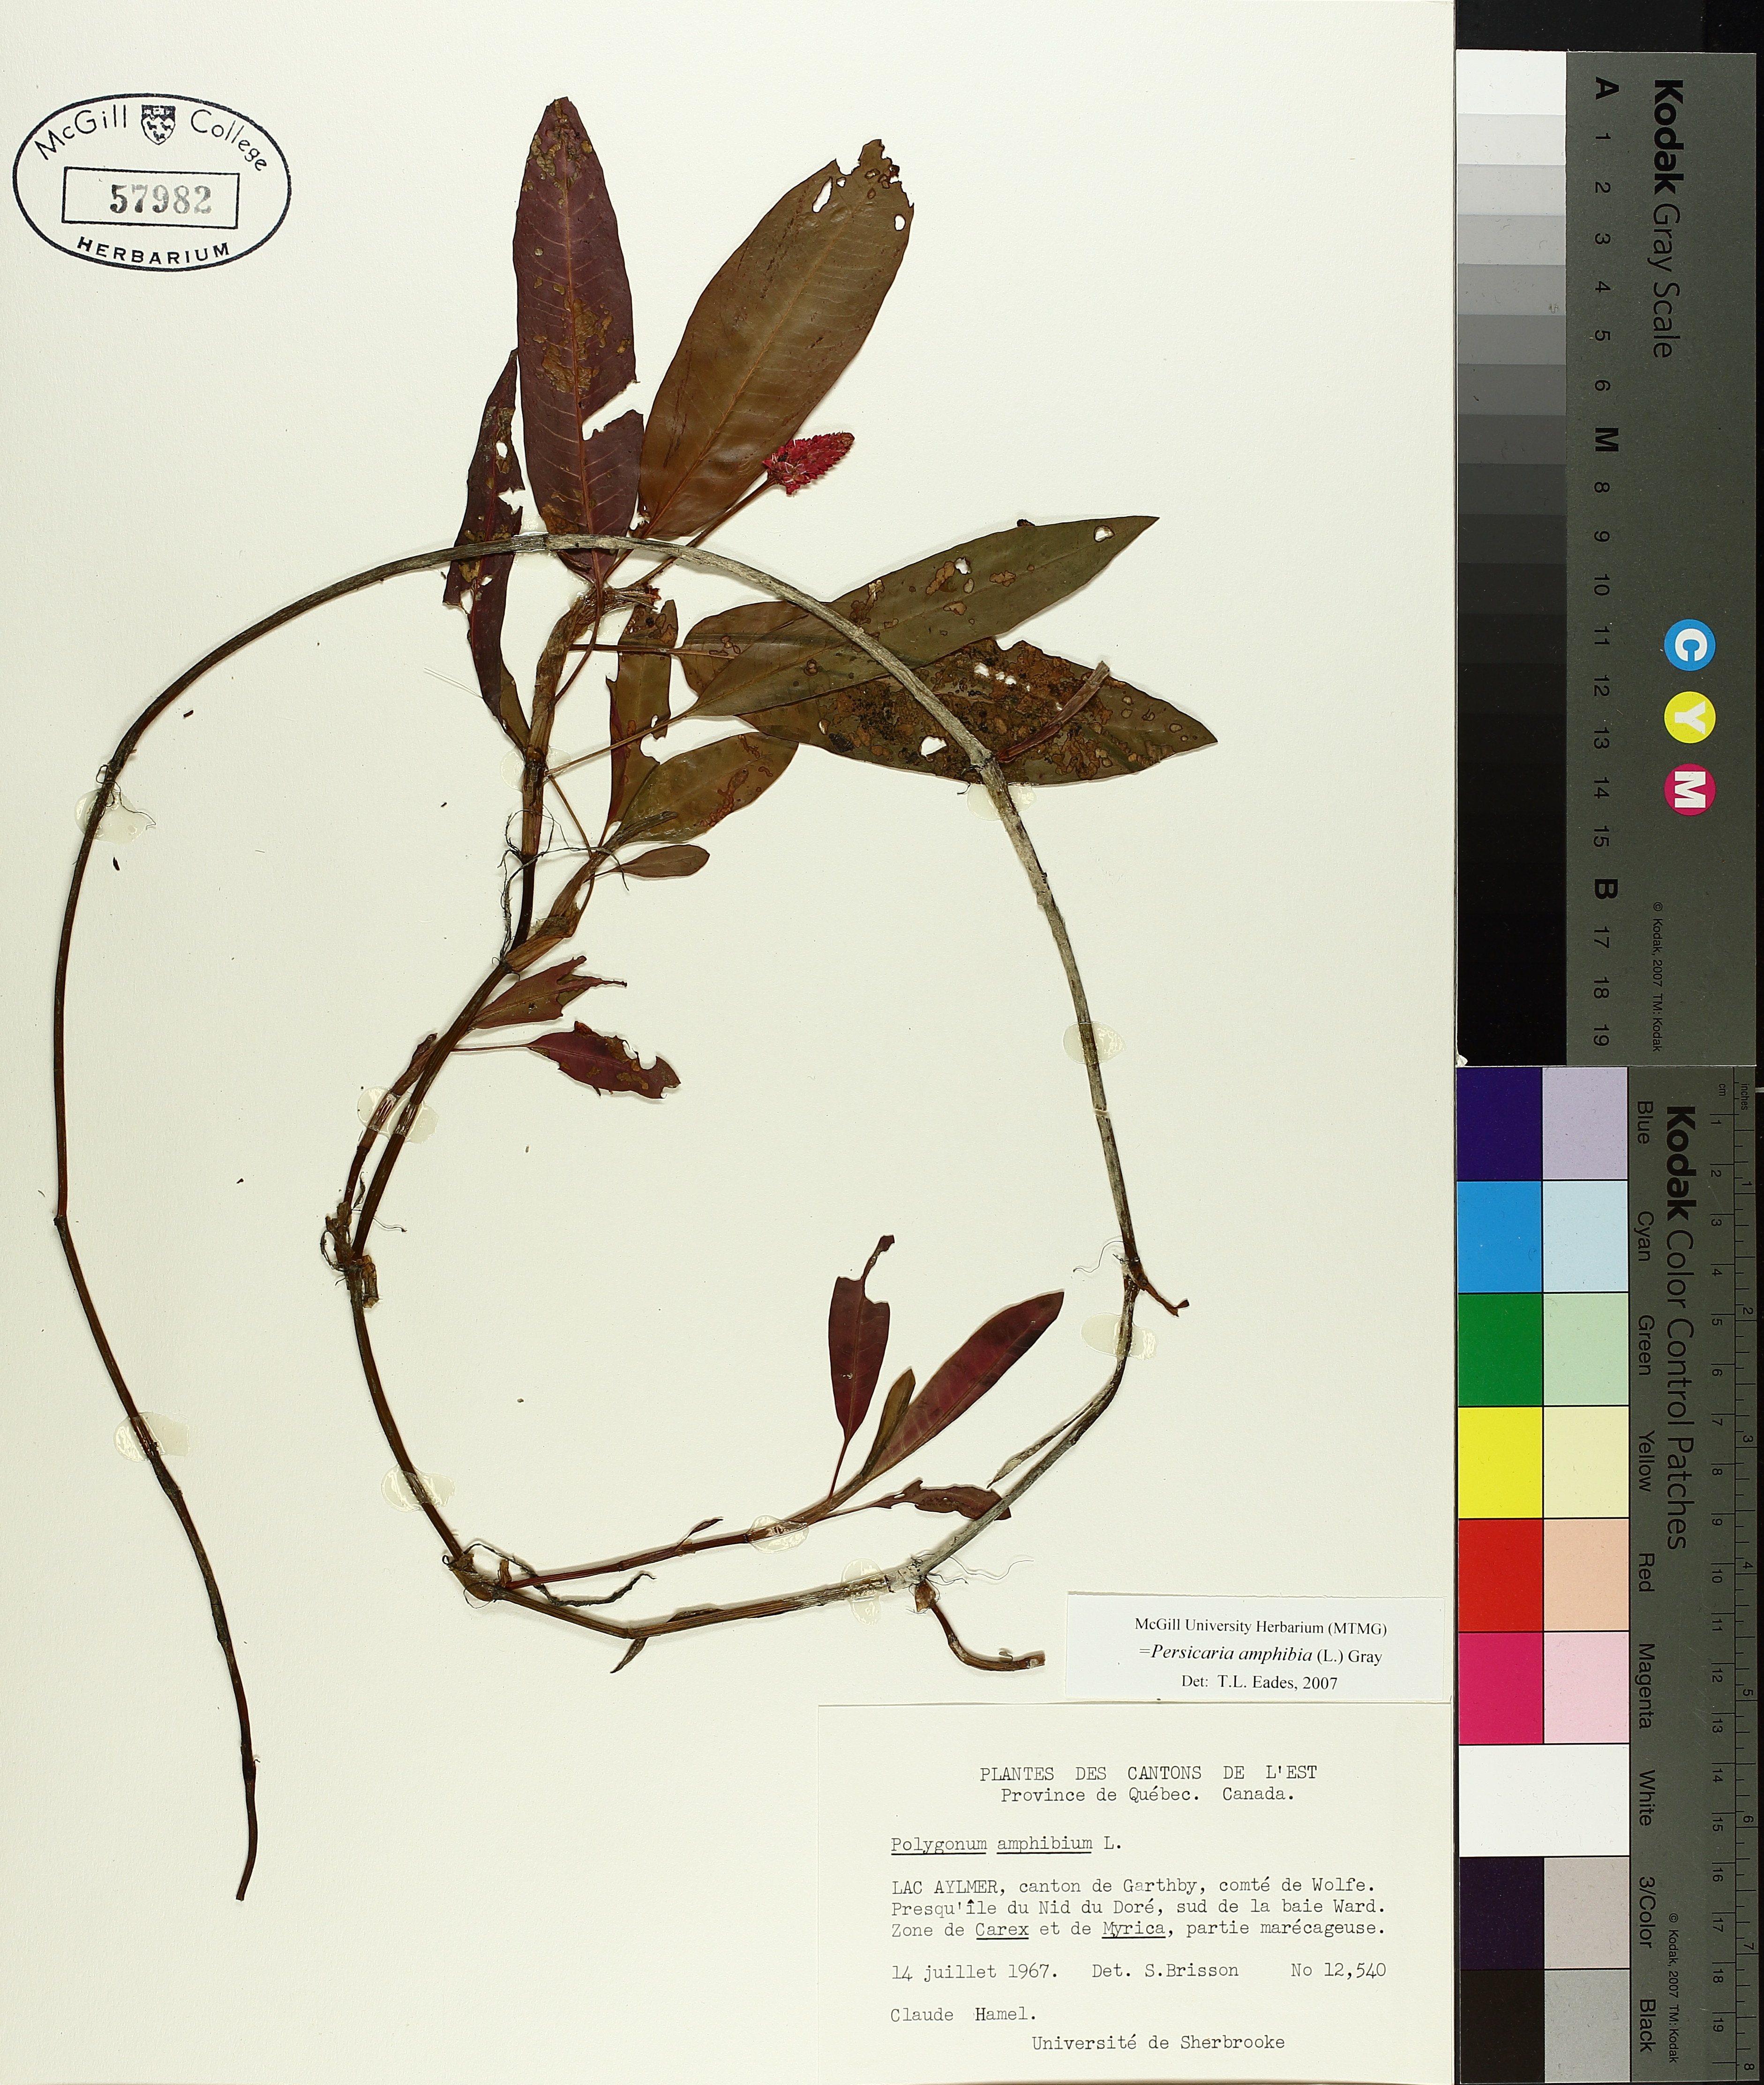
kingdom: Plantae
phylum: Tracheophyta
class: Magnoliopsida
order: Caryophyllales
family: Polygonaceae
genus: Persicaria
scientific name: Persicaria amphibia
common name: Amphibious bistort
